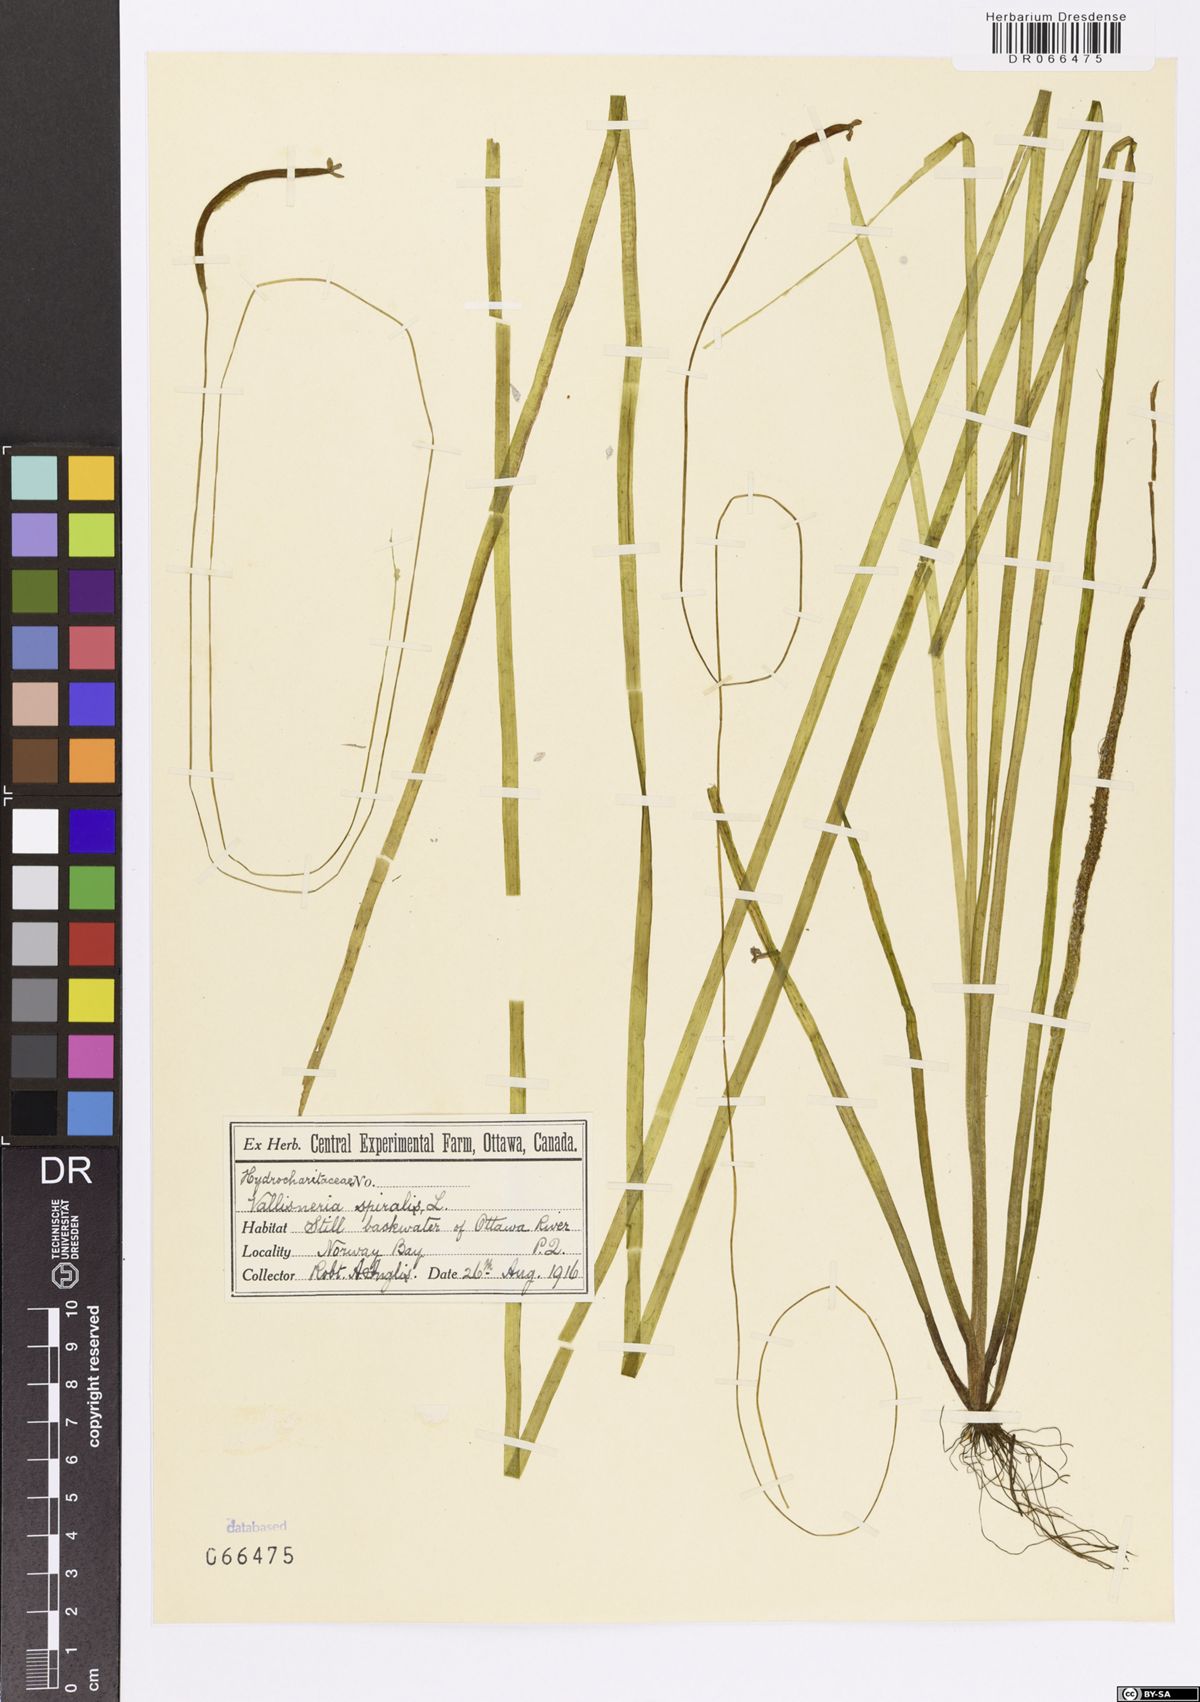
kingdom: Plantae
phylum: Tracheophyta
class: Liliopsida
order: Alismatales
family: Hydrocharitaceae
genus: Vallisneria
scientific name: Vallisneria spiralis
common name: Tapegrass
